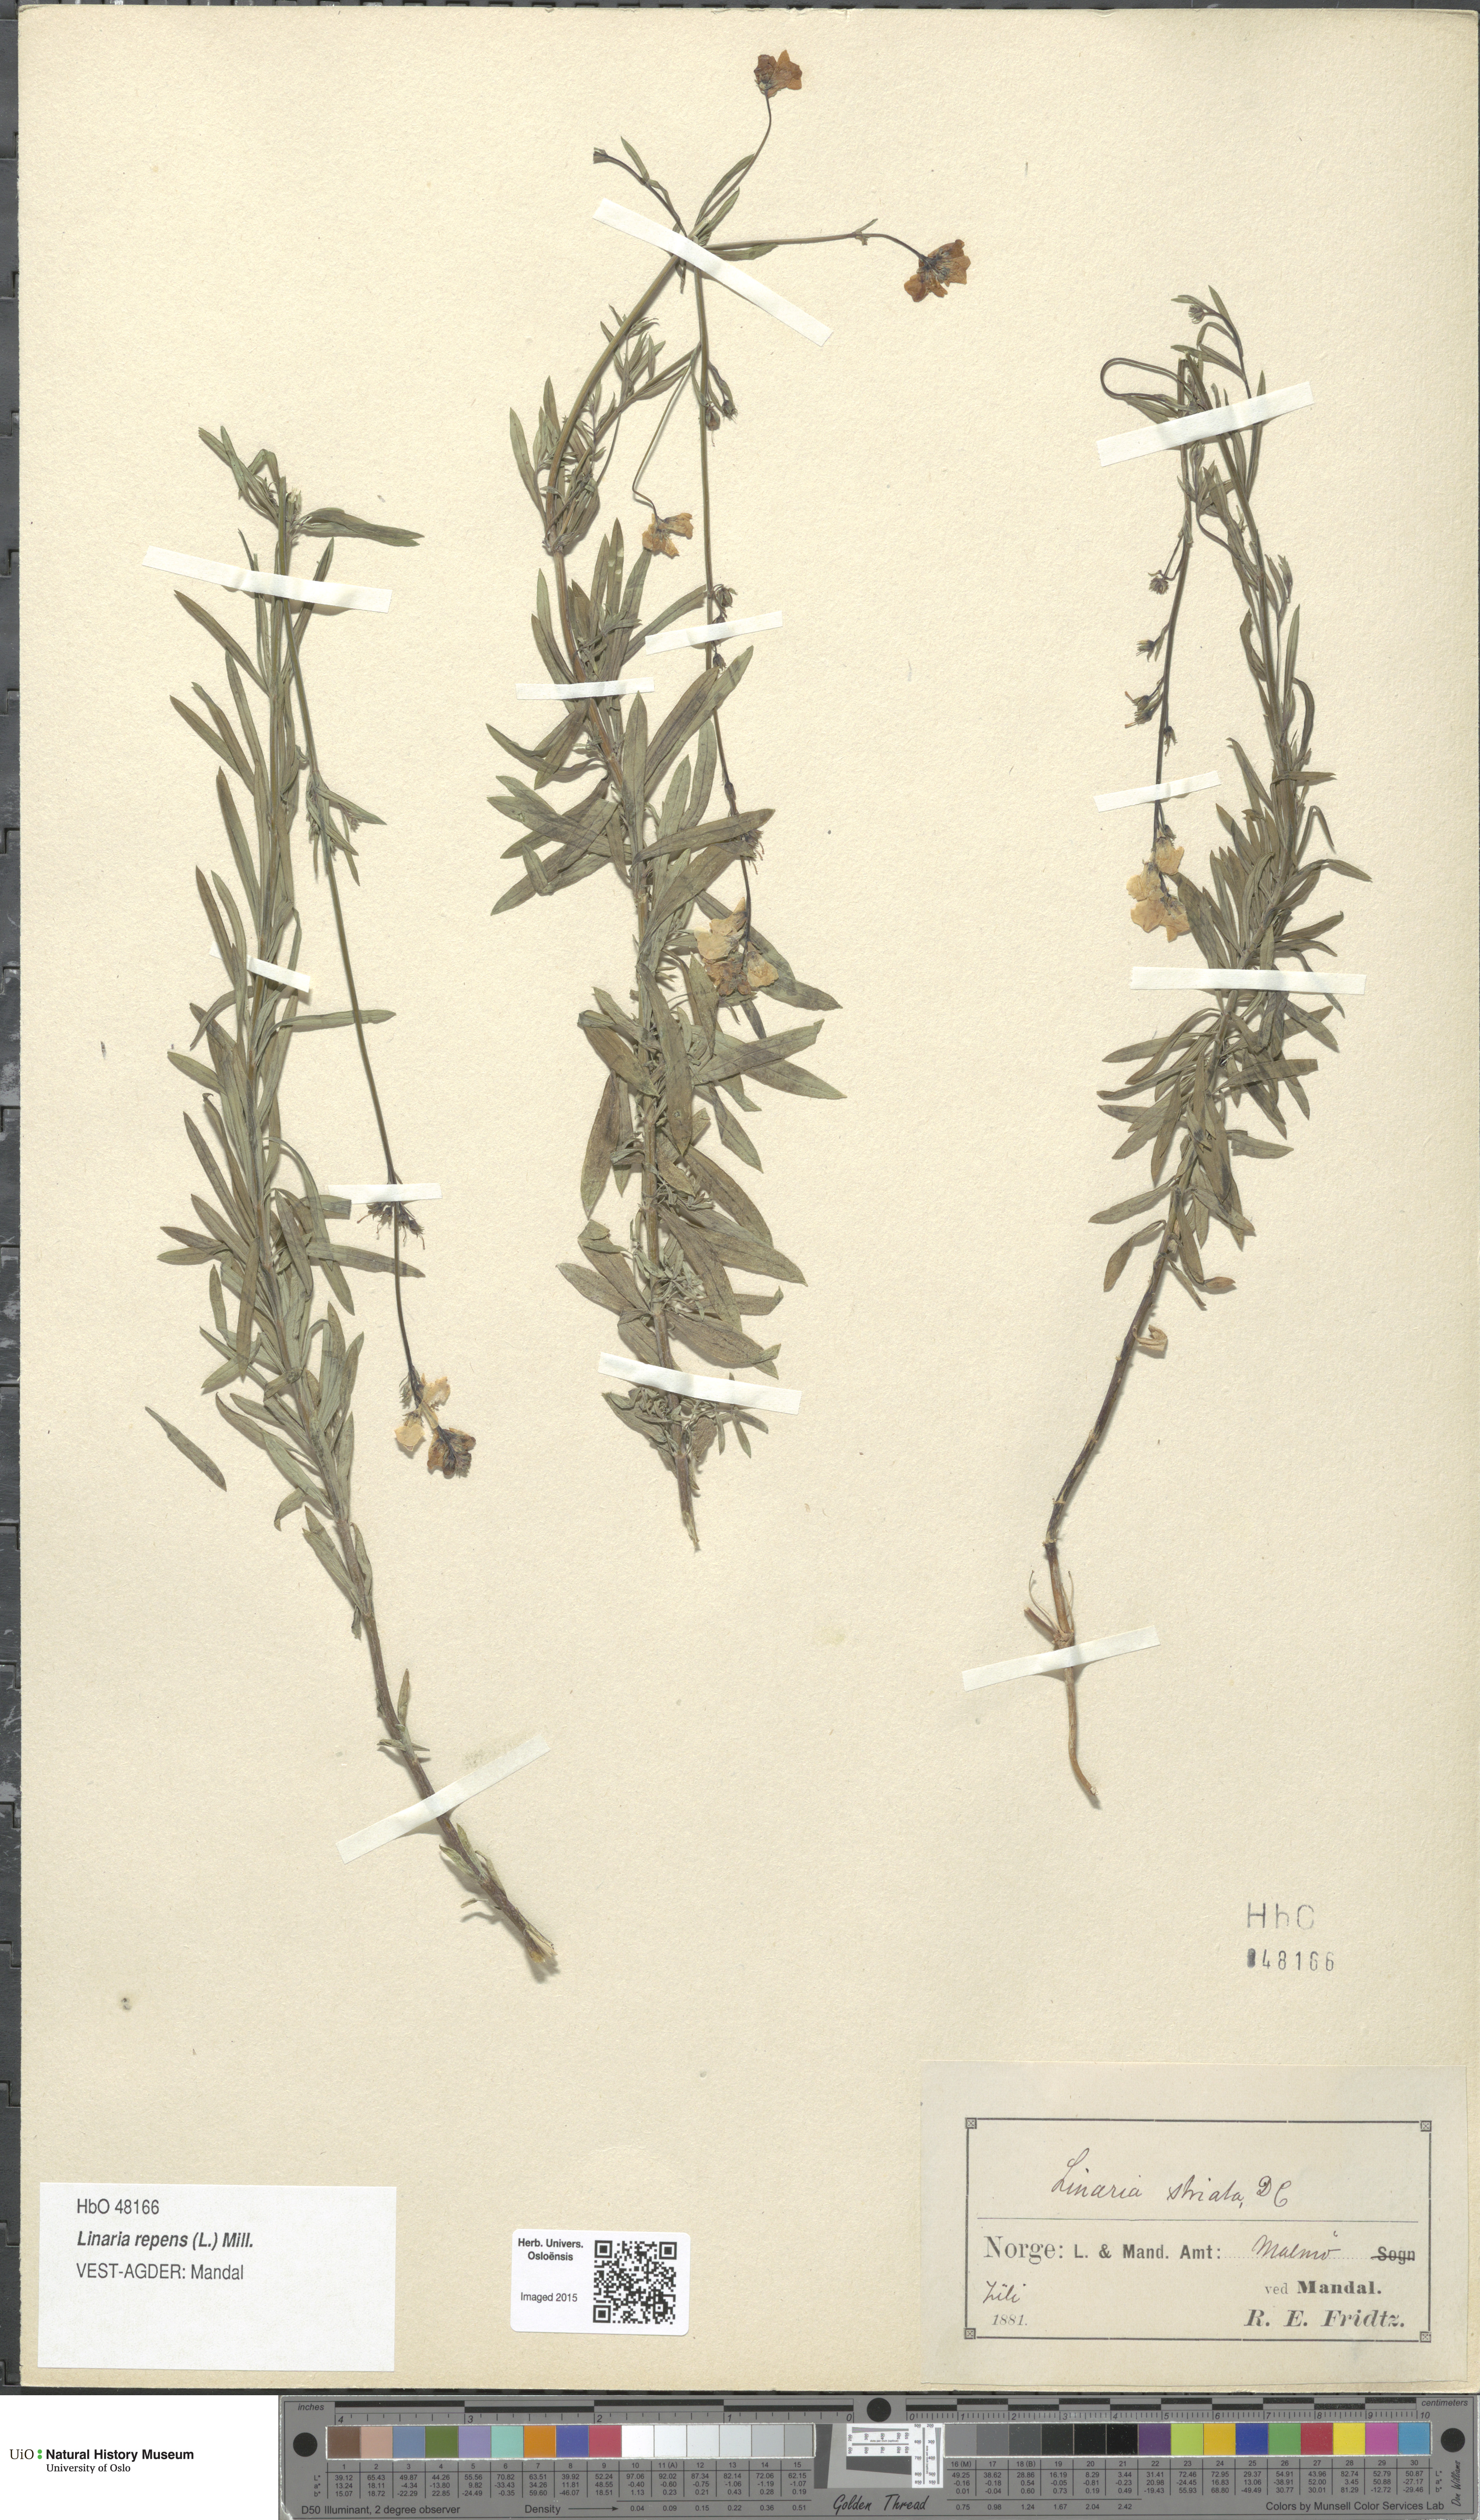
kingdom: Plantae
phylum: Tracheophyta
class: Magnoliopsida
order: Lamiales
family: Plantaginaceae
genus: Linaria
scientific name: Linaria repens
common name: Pale toadflax
